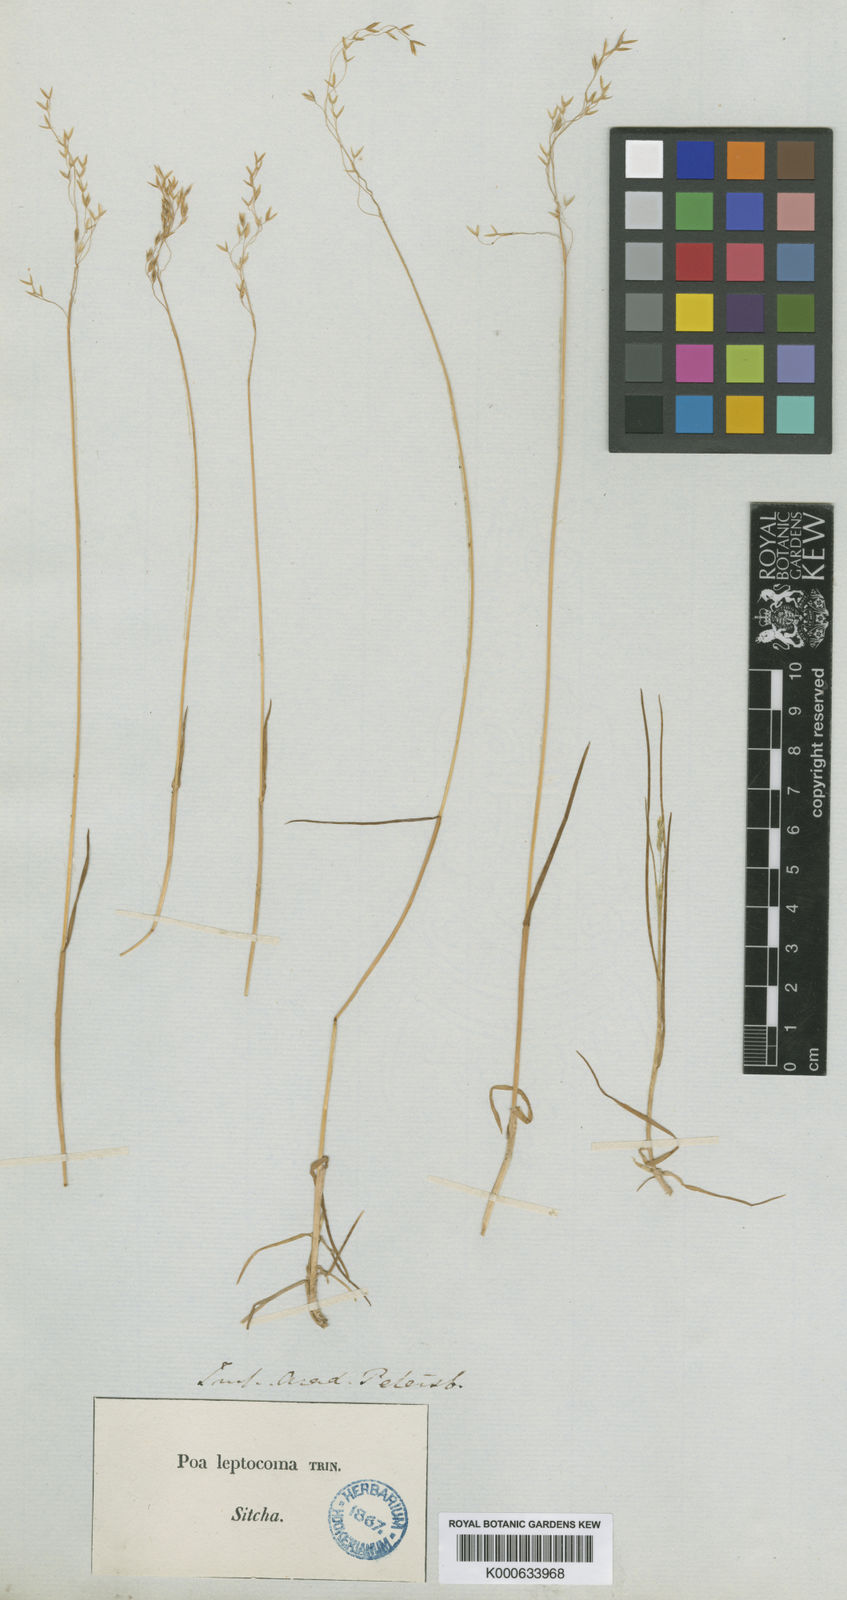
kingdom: Plantae
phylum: Tracheophyta
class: Liliopsida
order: Poales
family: Poaceae
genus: Poa
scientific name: Poa leptocoma
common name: Bog bluegrass
